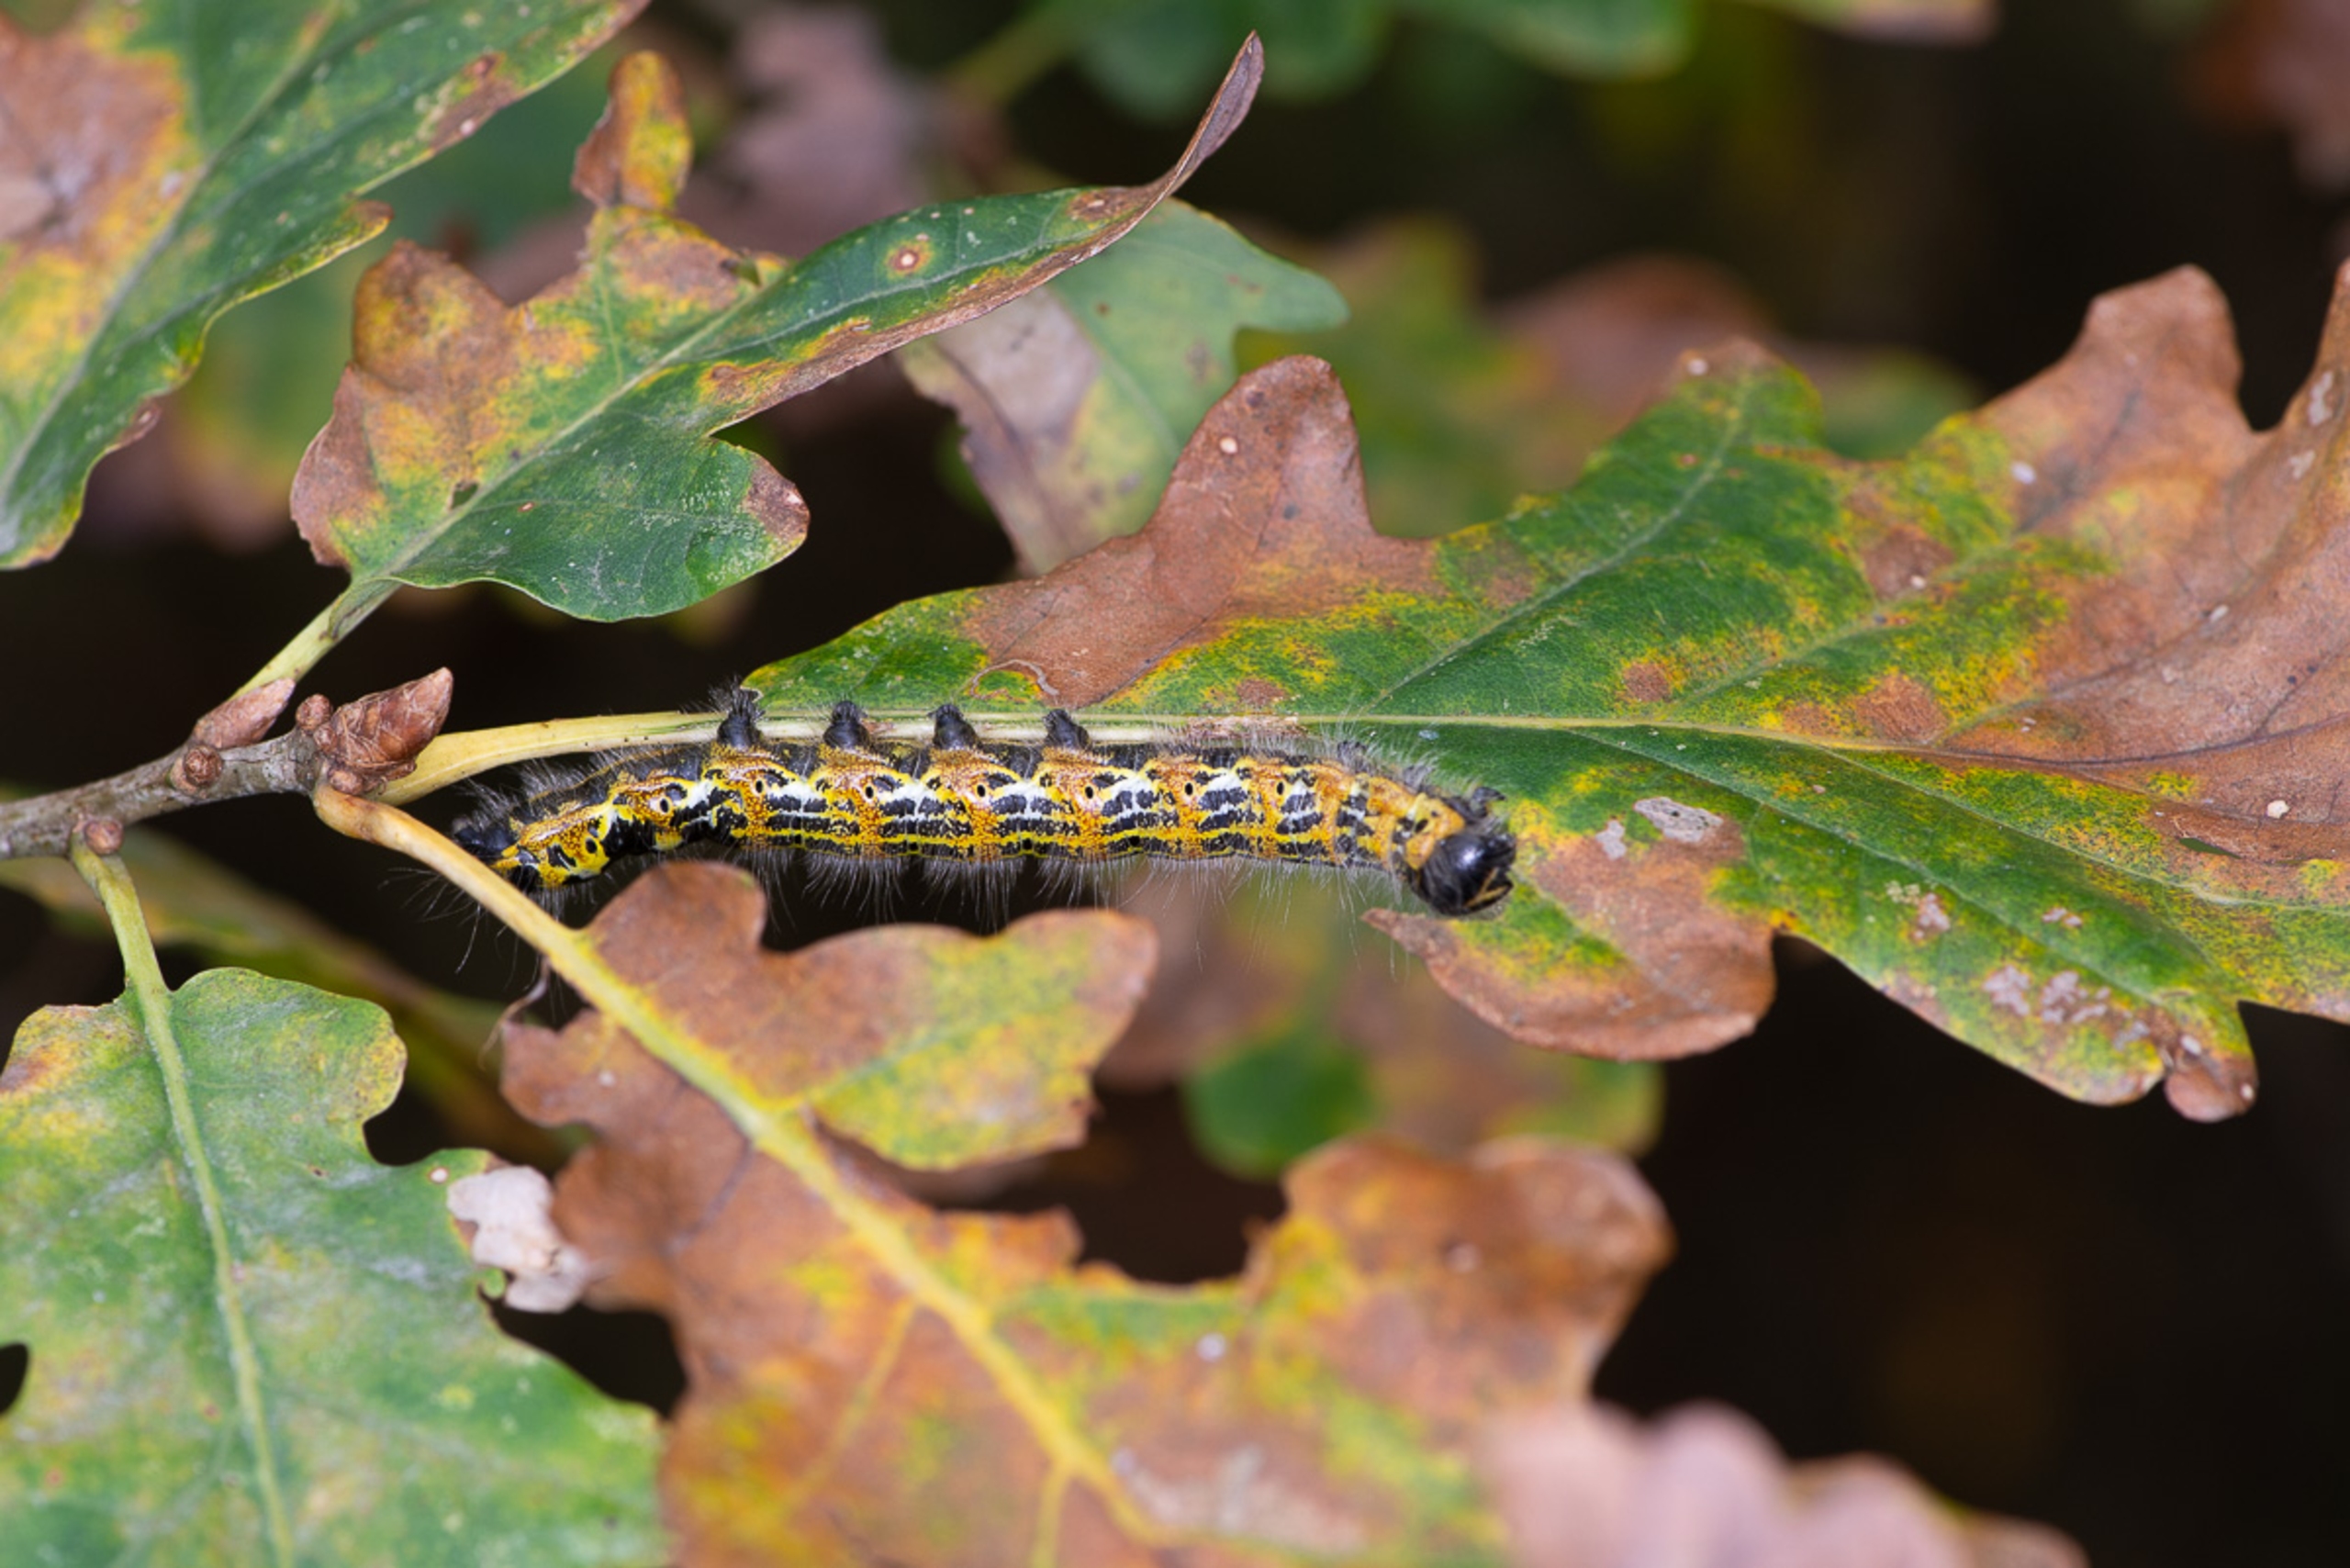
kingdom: Animalia
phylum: Arthropoda
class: Insecta
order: Lepidoptera
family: Notodontidae
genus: Phalera
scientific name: Phalera bucephala
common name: Måneplet
